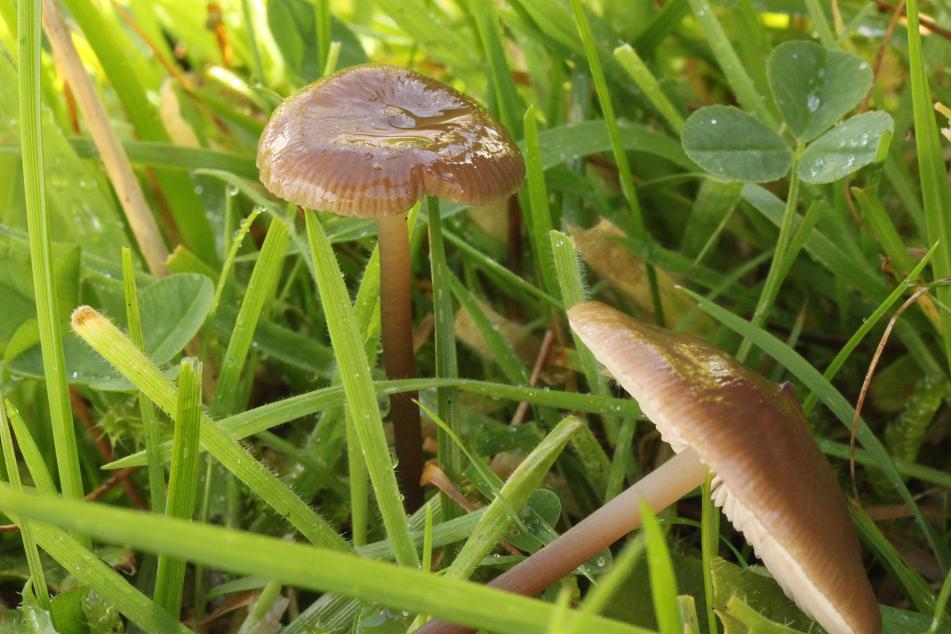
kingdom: Fungi
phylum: Basidiomycota
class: Agaricomycetes
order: Agaricales
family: Entolomataceae
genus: Entoloma
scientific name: Entoloma infula
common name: hvidbladet rødblad
